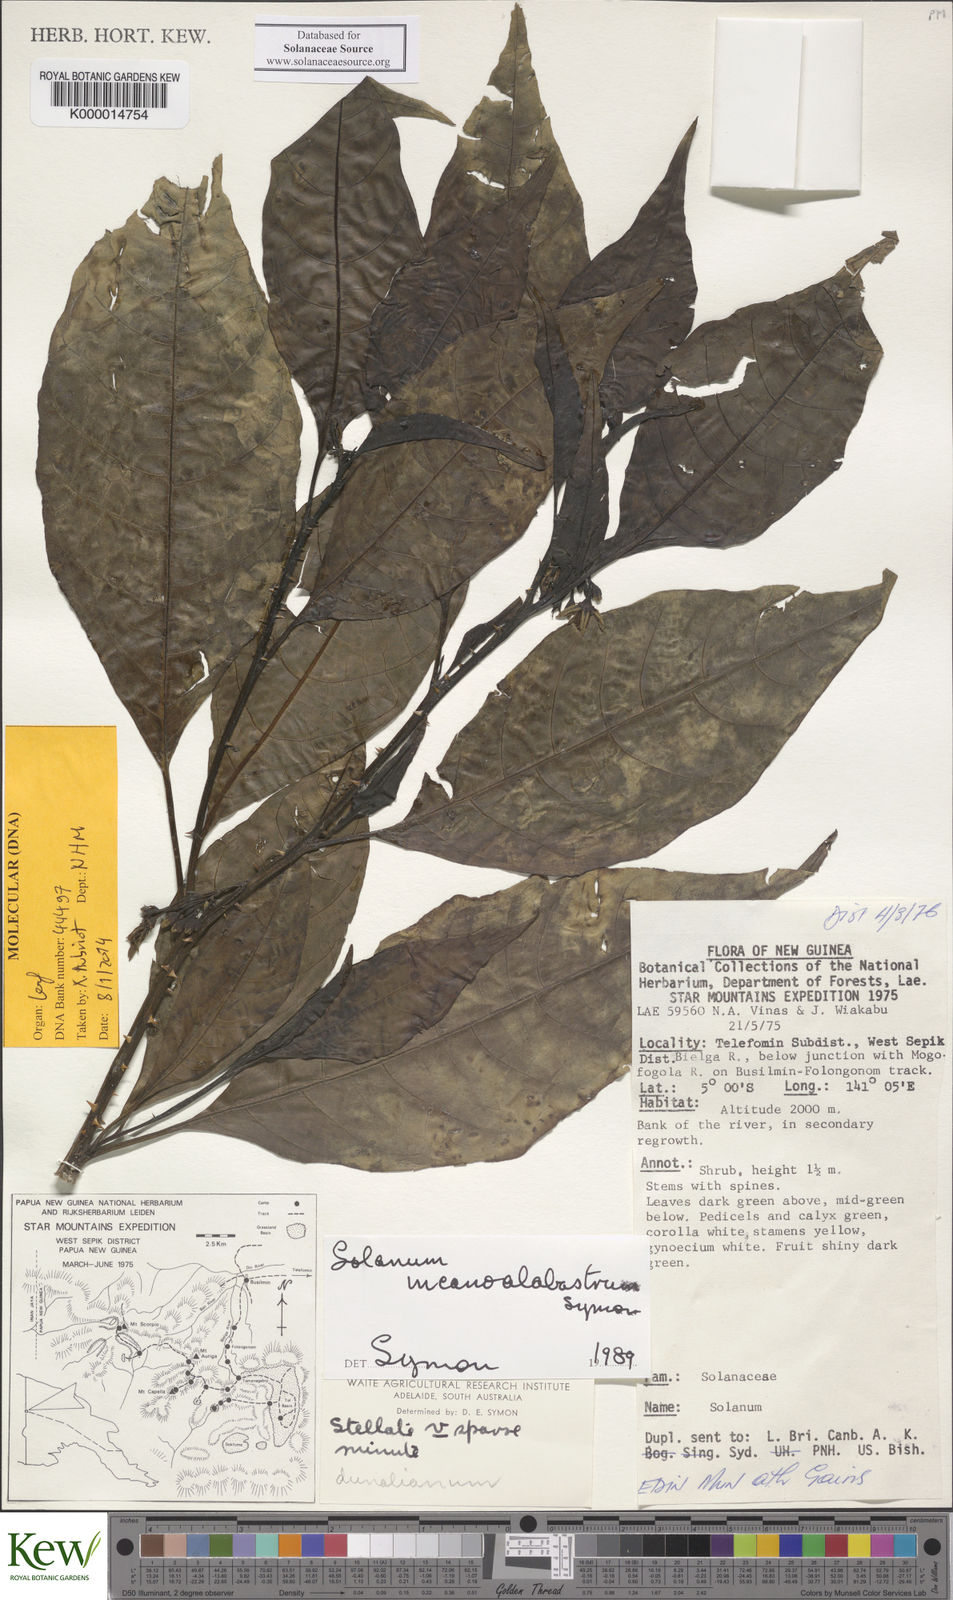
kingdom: Plantae
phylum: Tracheophyta
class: Magnoliopsida
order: Solanales
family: Solanaceae
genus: Solanum
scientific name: Solanum incanoalabastrum
